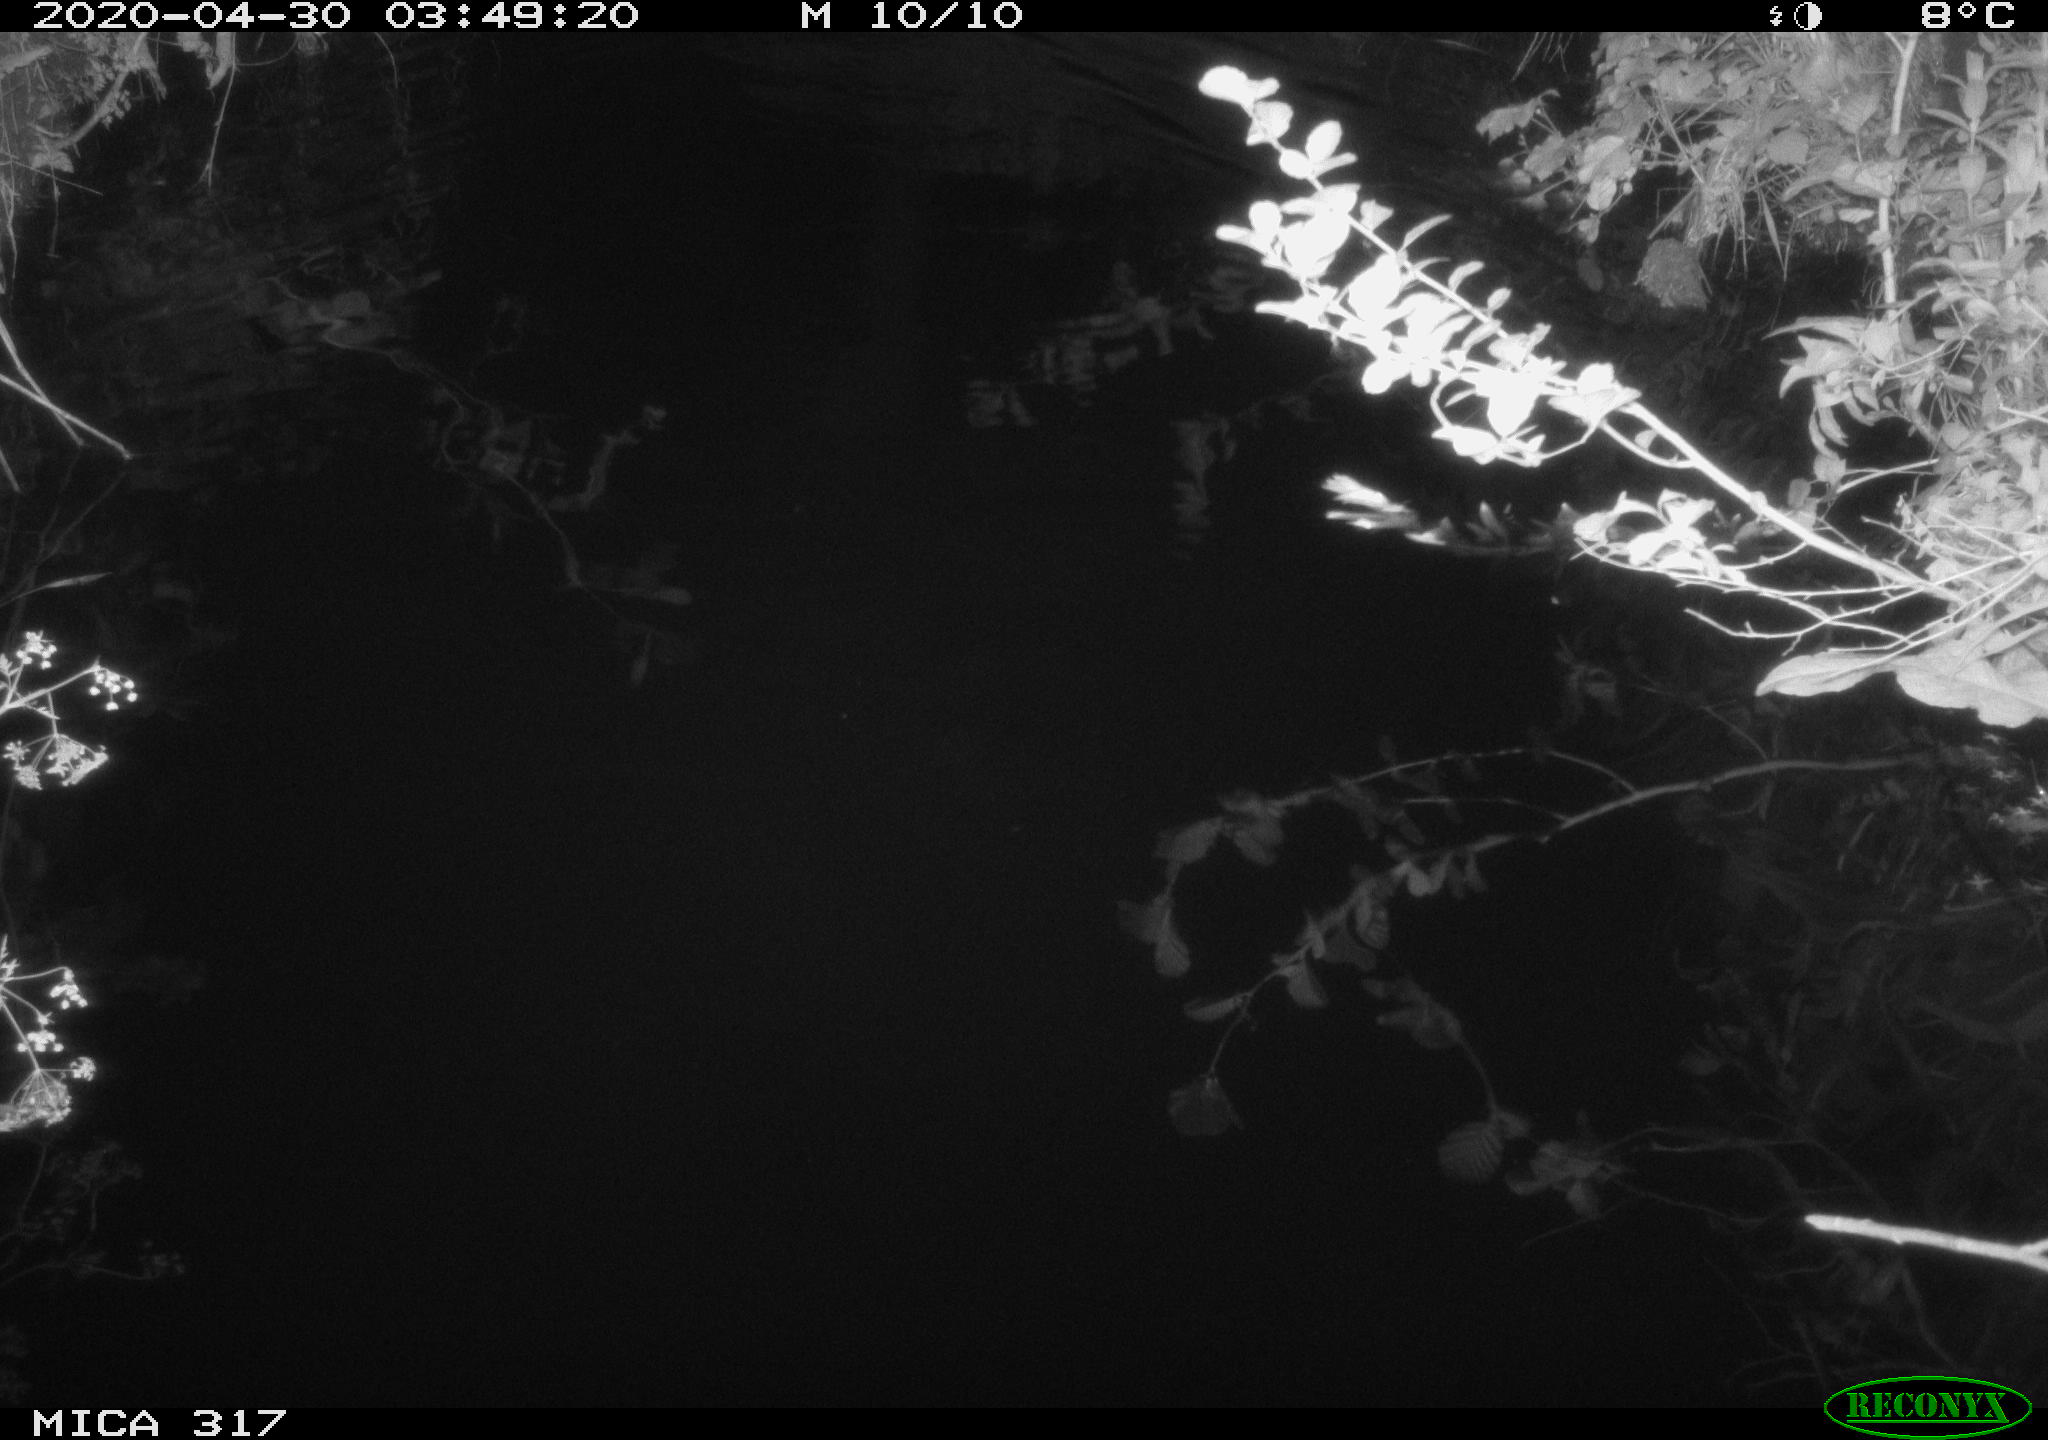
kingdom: Animalia
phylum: Chordata
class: Aves
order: Anseriformes
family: Anatidae
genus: Anas
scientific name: Anas platyrhynchos
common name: Mallard
